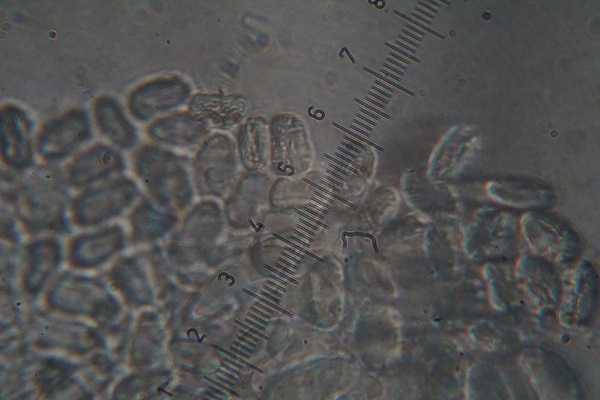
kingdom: Fungi
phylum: Mucoromycota
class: Mucoromycetes
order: Mucorales
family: Mucoraceae
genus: Mucor
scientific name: Mucor
